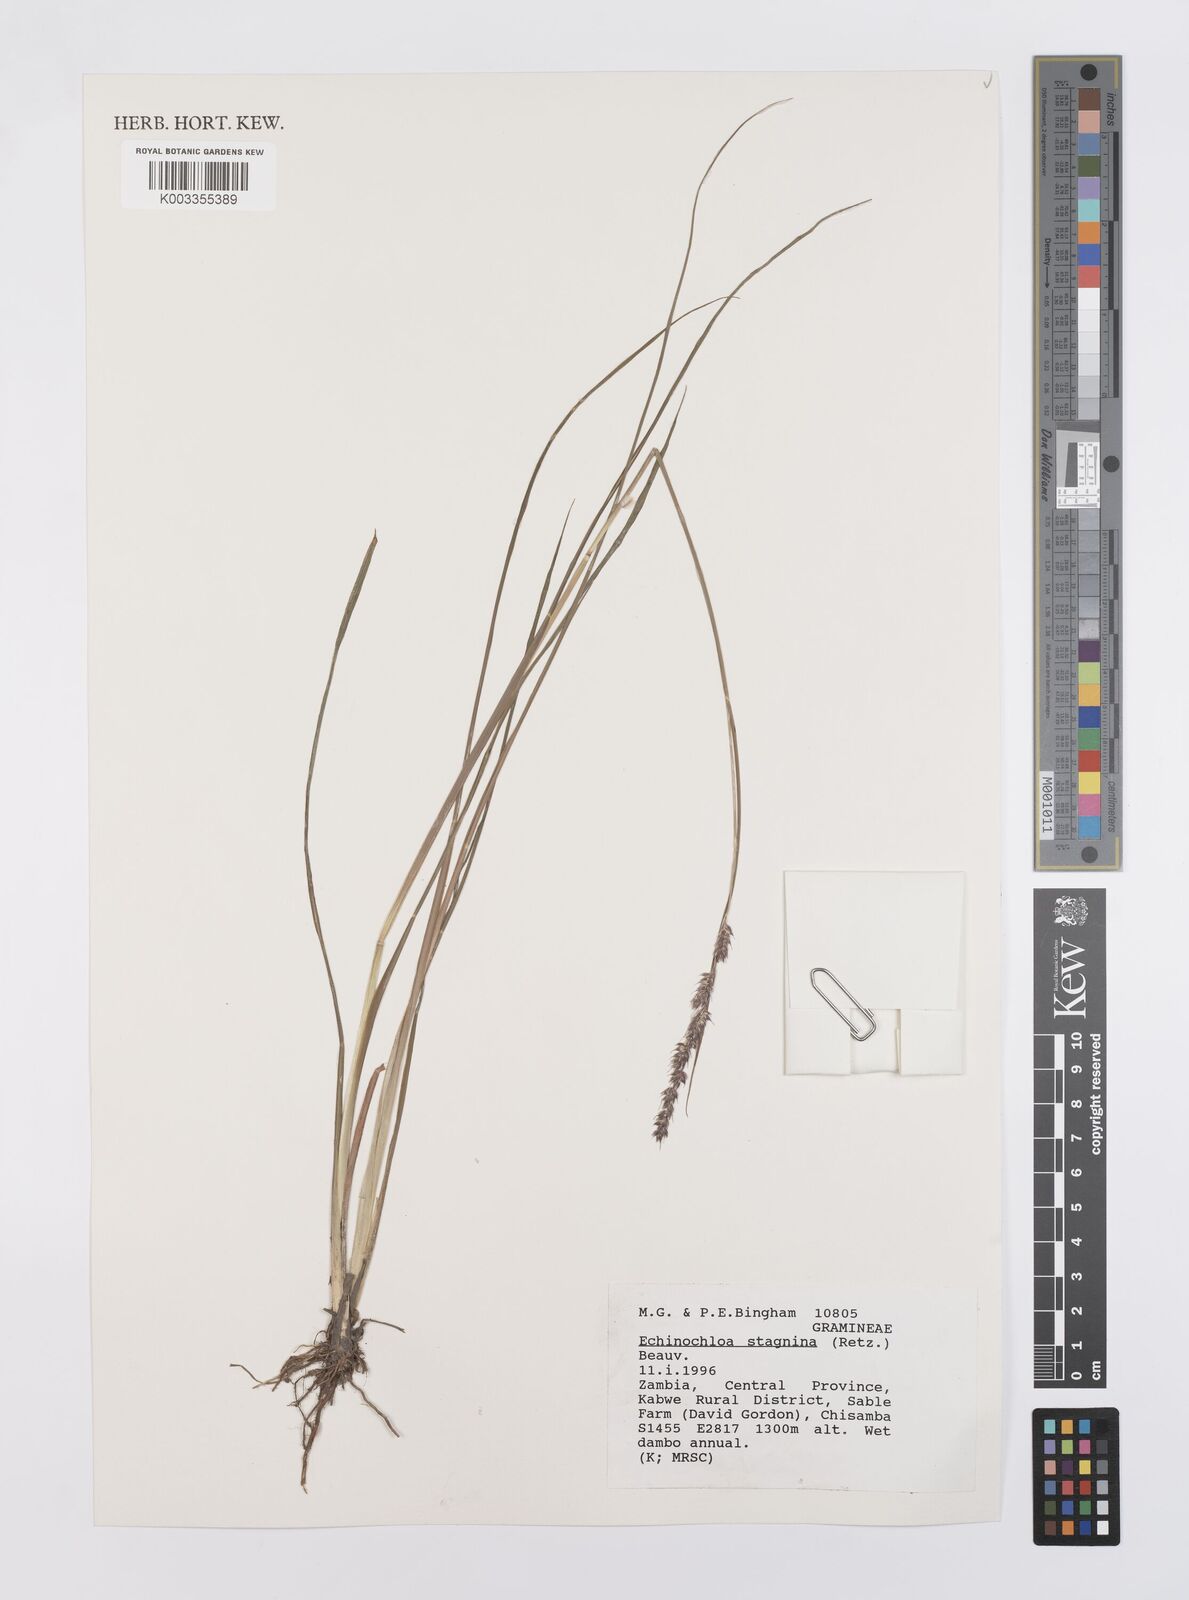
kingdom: Plantae
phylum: Tracheophyta
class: Liliopsida
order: Poales
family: Poaceae
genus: Echinochloa
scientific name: Echinochloa stagnina
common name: Burgu grass
